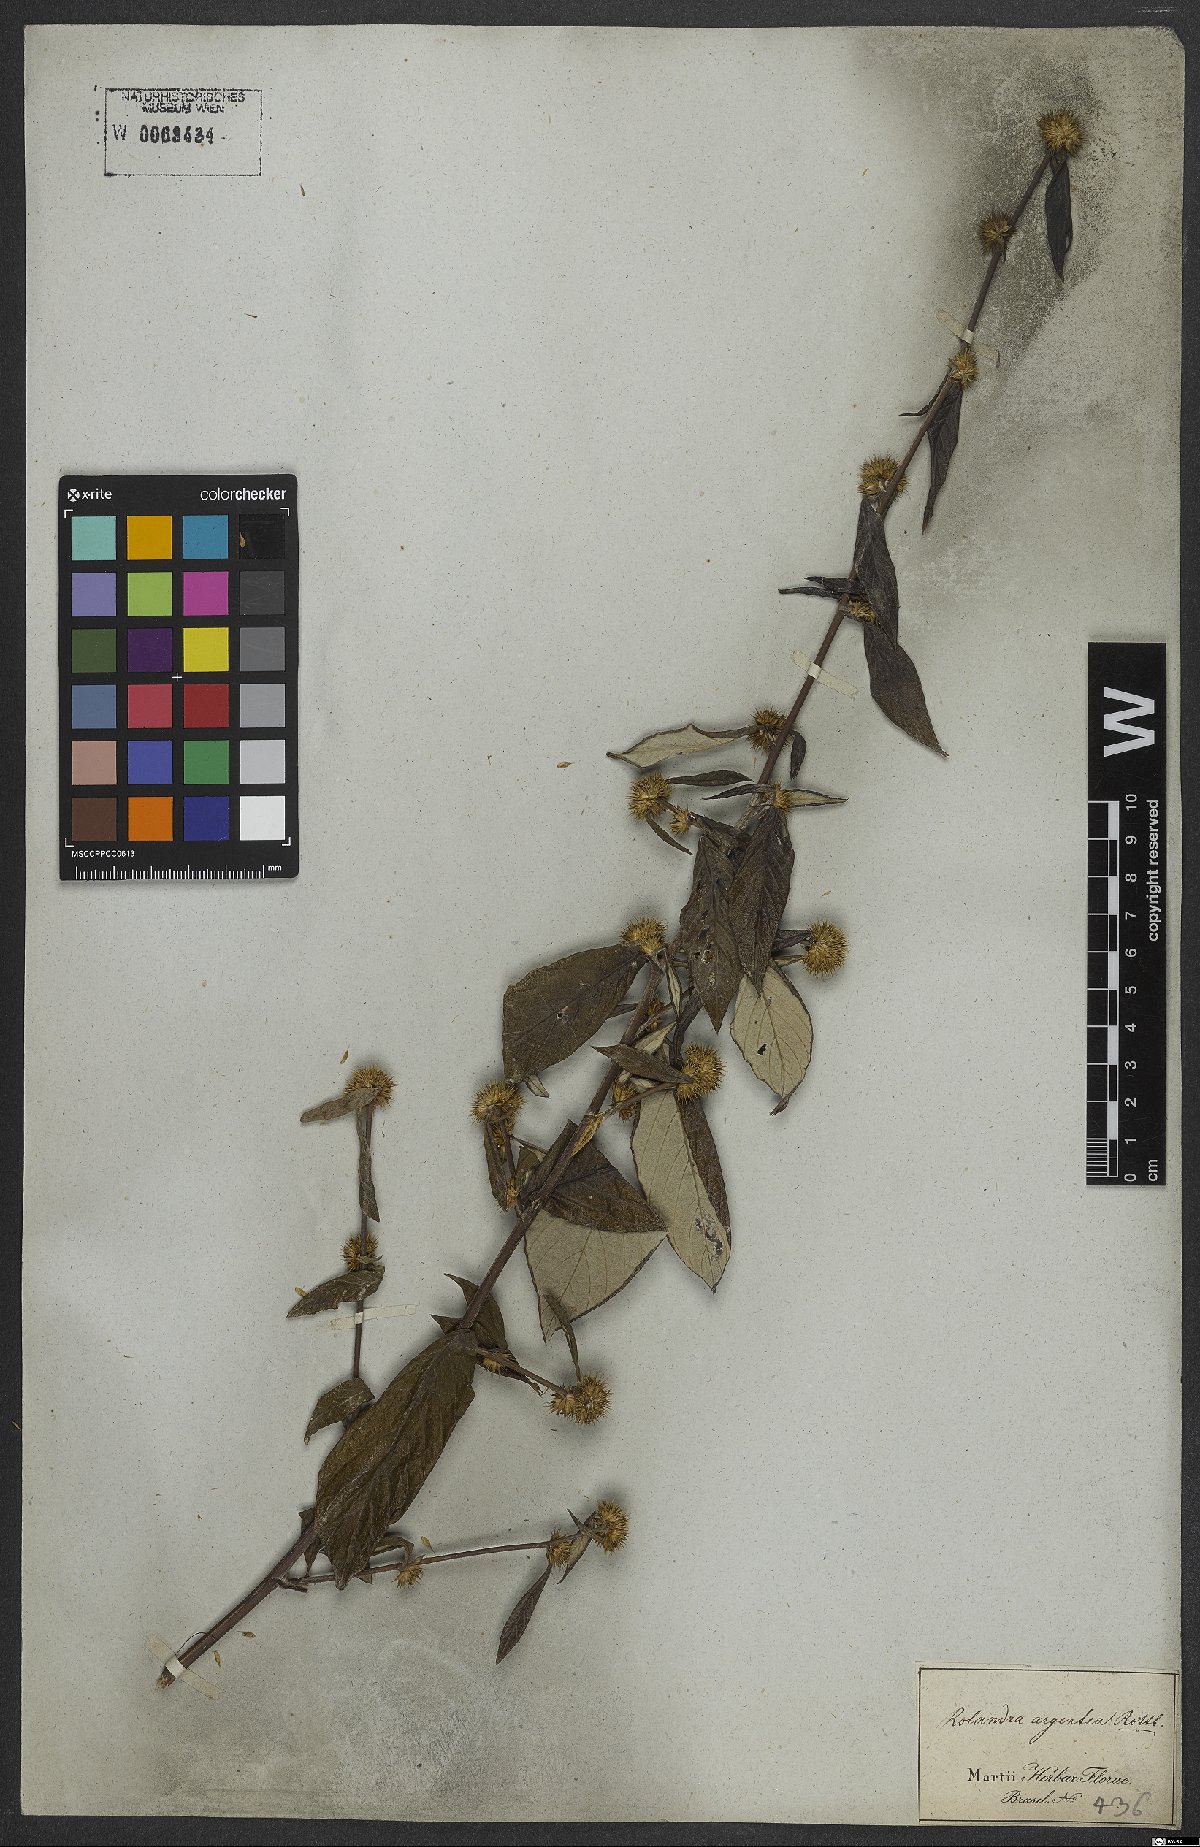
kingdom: Plantae
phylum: Tracheophyta
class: Magnoliopsida
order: Asterales
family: Asteraceae
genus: Rolandra
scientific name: Rolandra fruticosa
